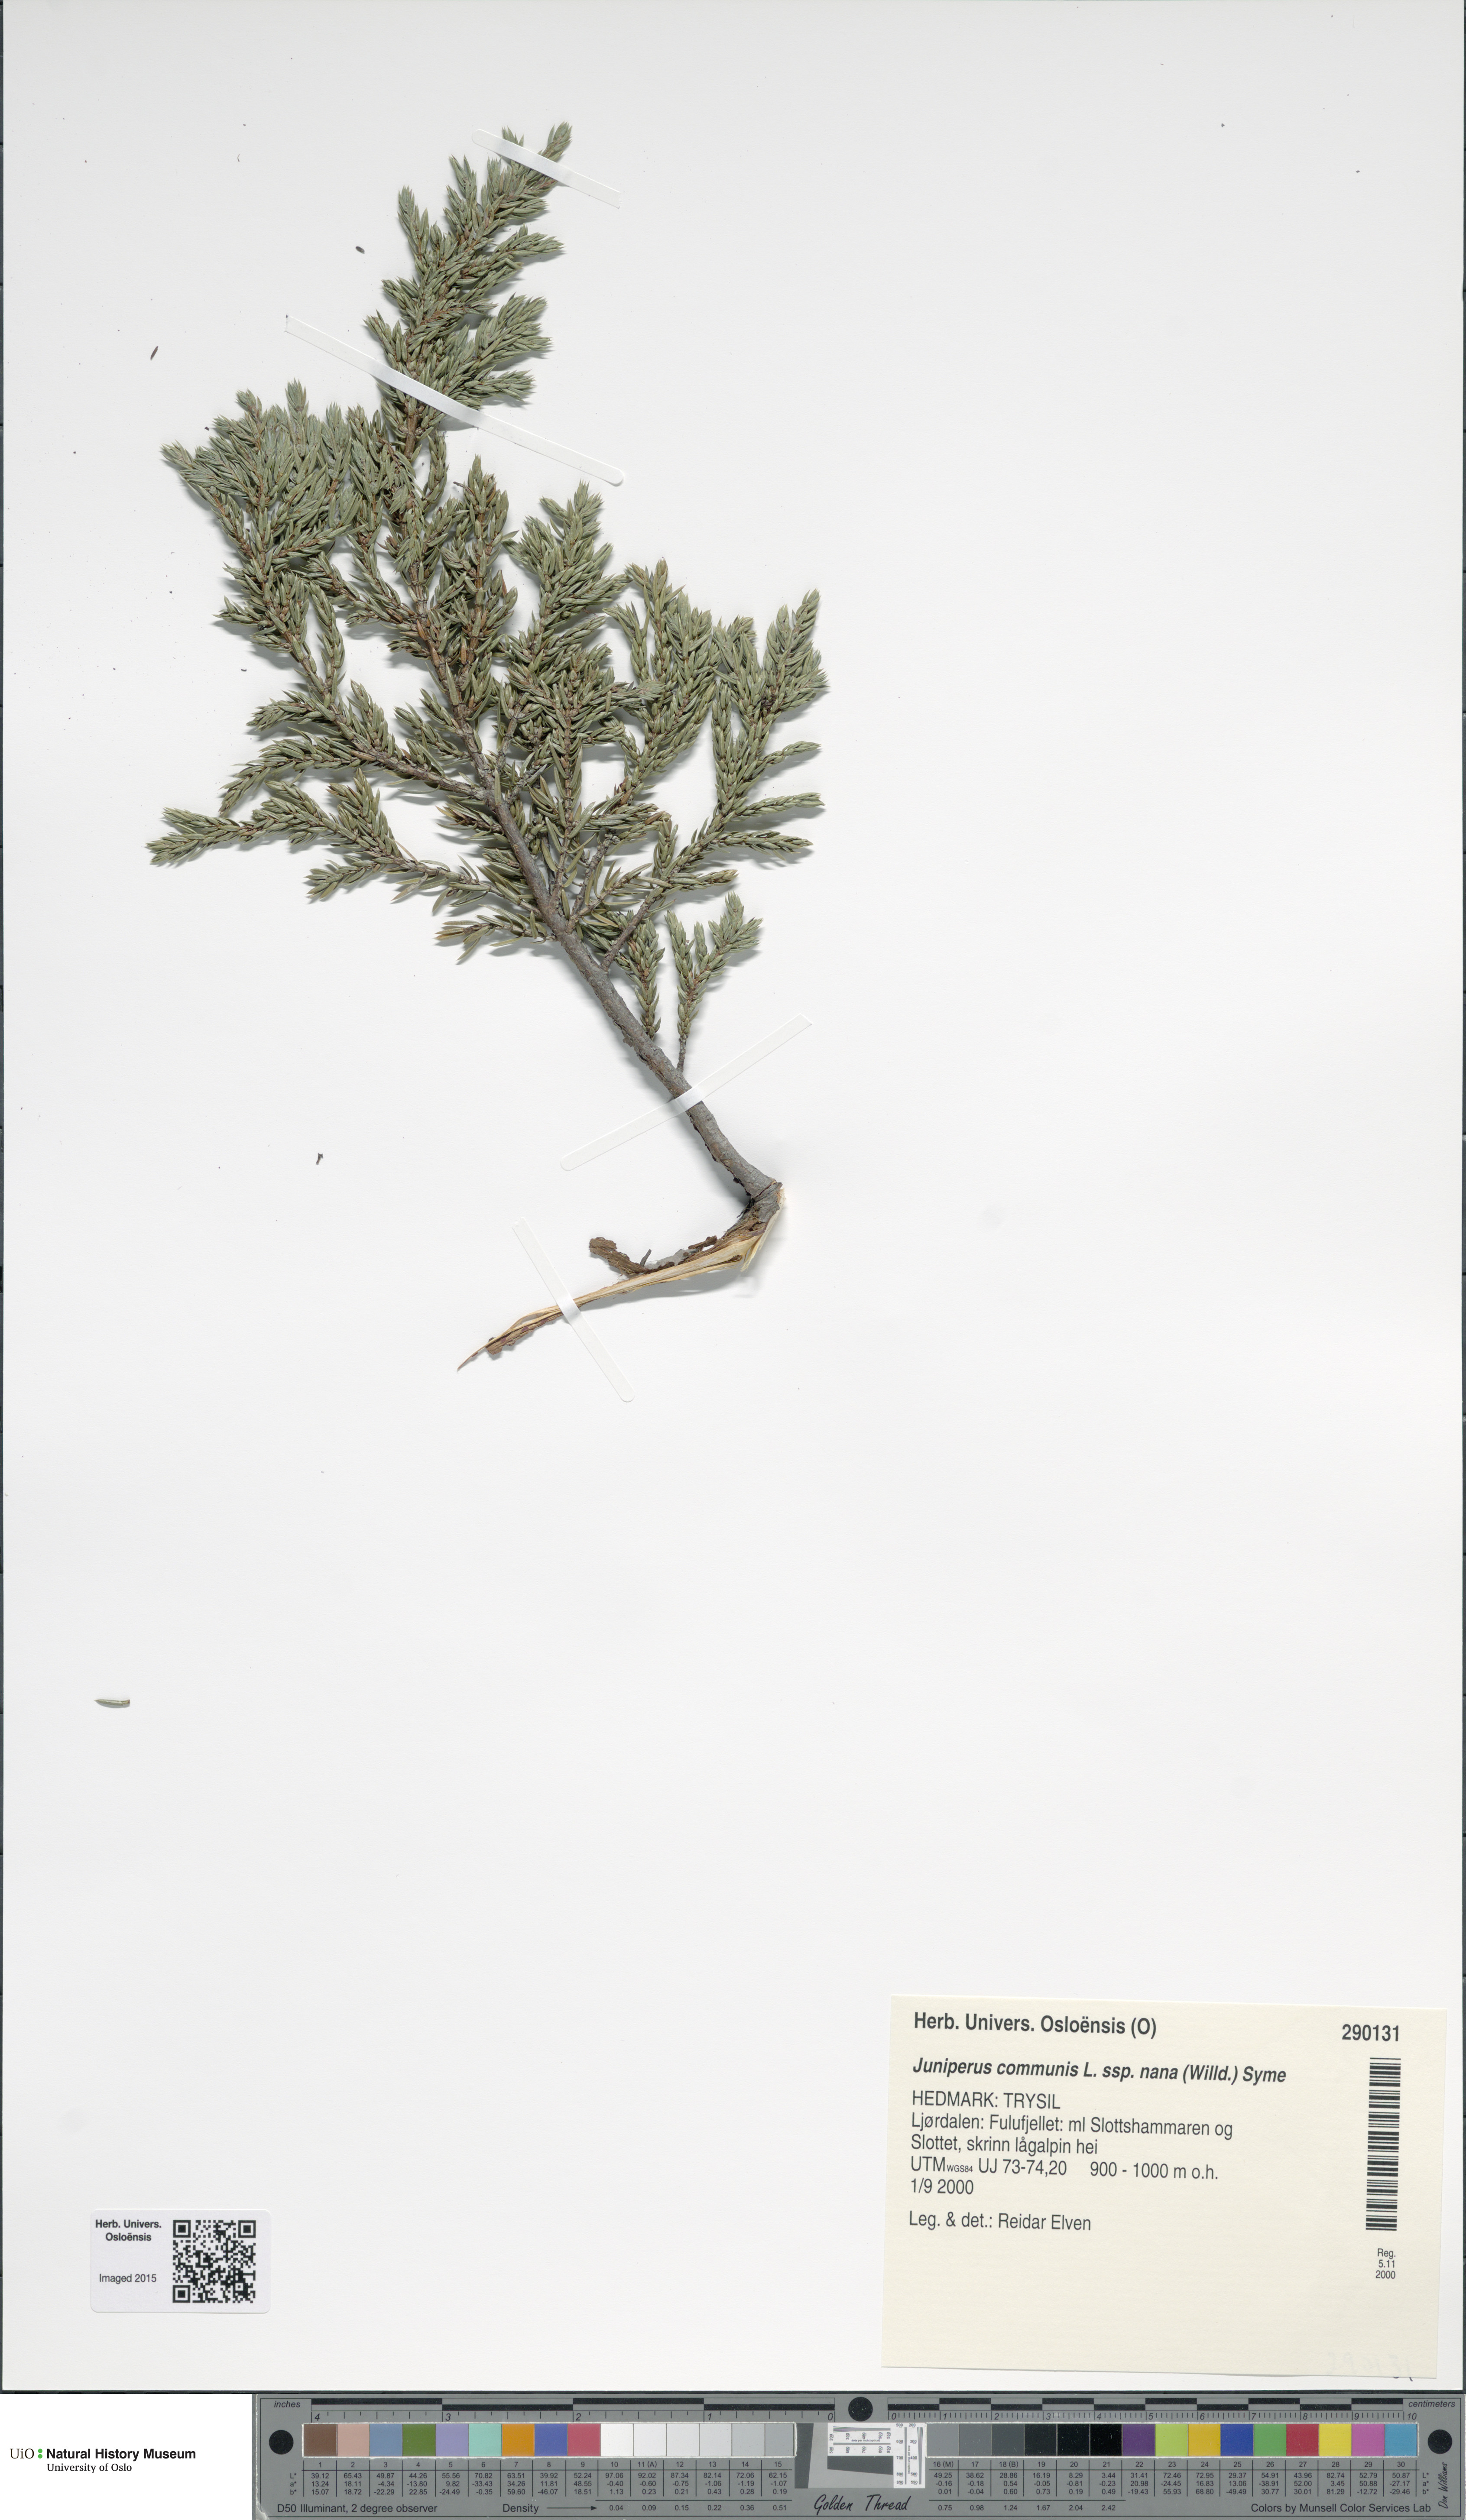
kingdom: Plantae
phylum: Tracheophyta
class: Pinopsida
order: Pinales
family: Cupressaceae
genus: Juniperus
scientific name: Juniperus communis
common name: Common juniper
